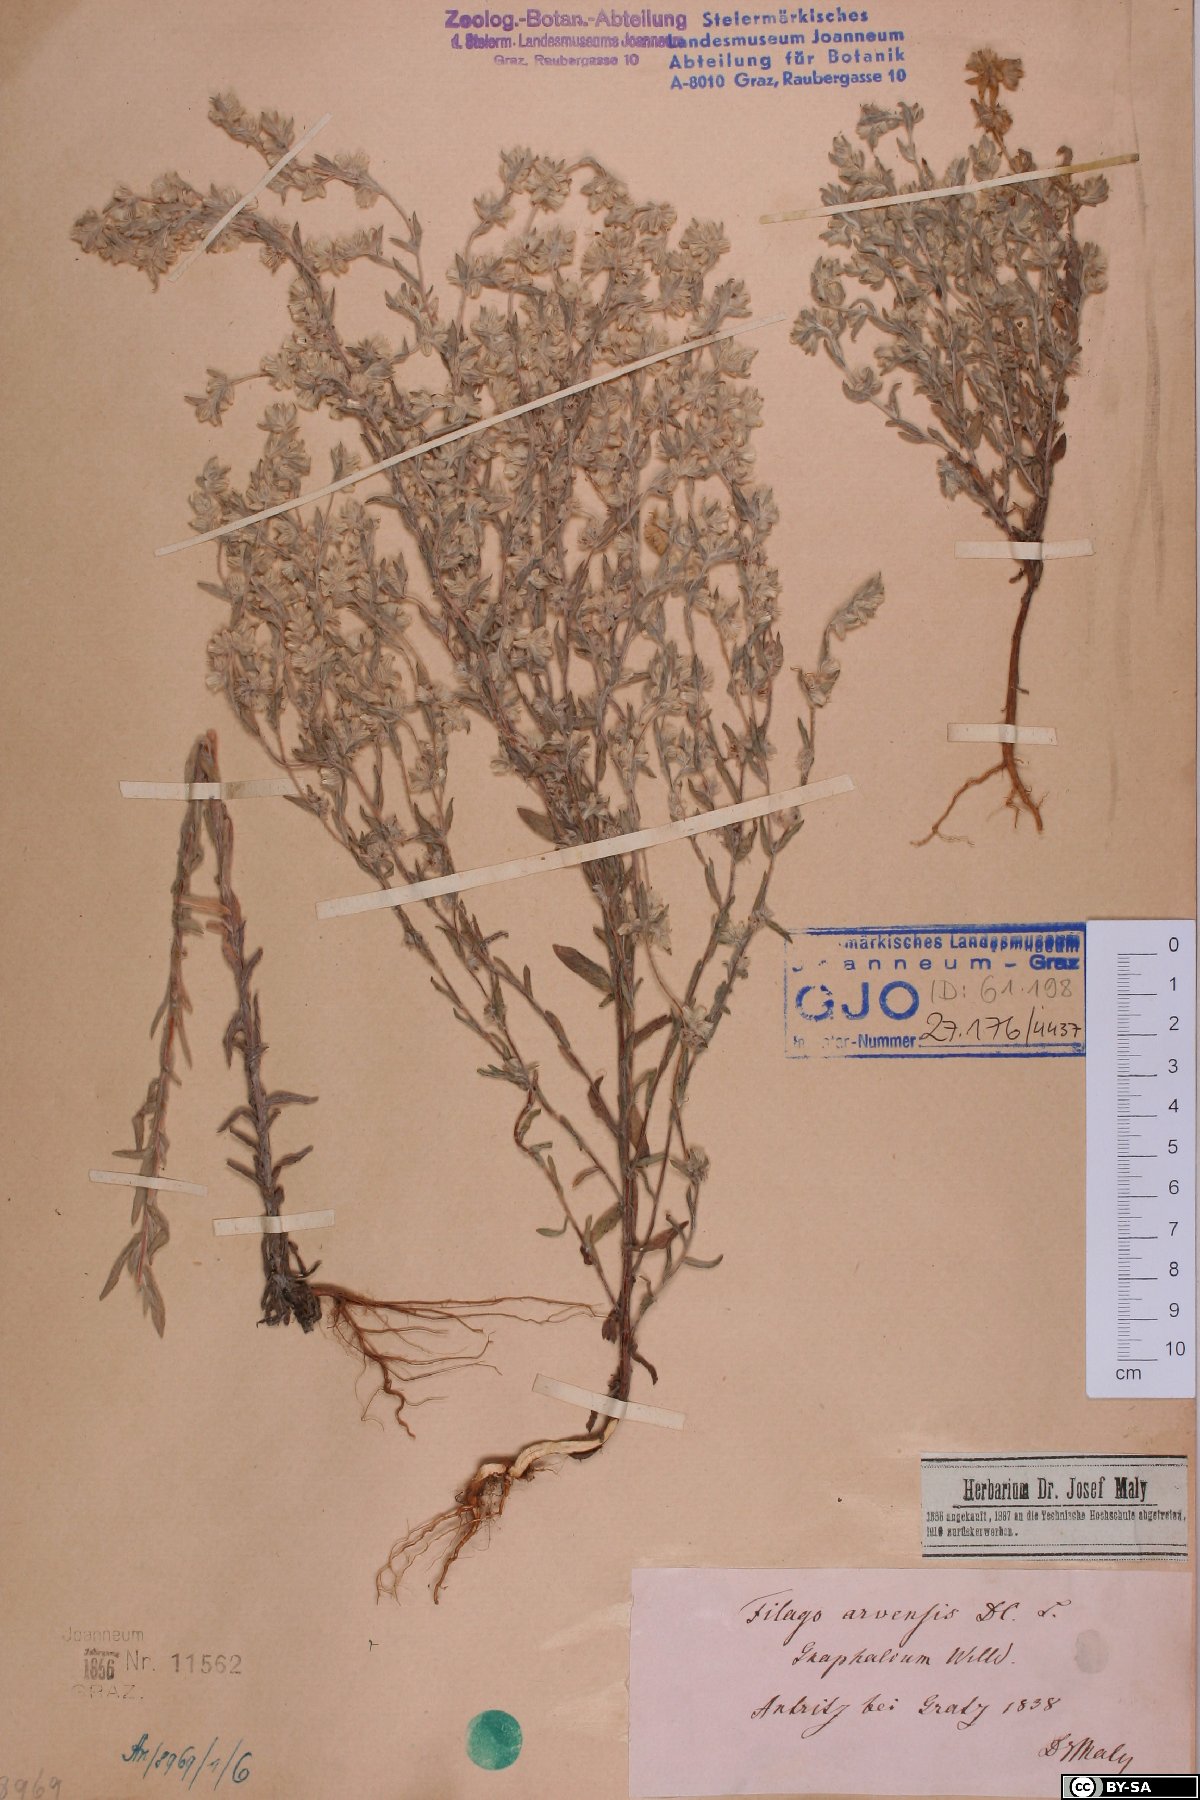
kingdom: Plantae
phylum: Tracheophyta
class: Magnoliopsida
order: Asterales
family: Asteraceae
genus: Filago
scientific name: Filago arvensis
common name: Field cudweed
